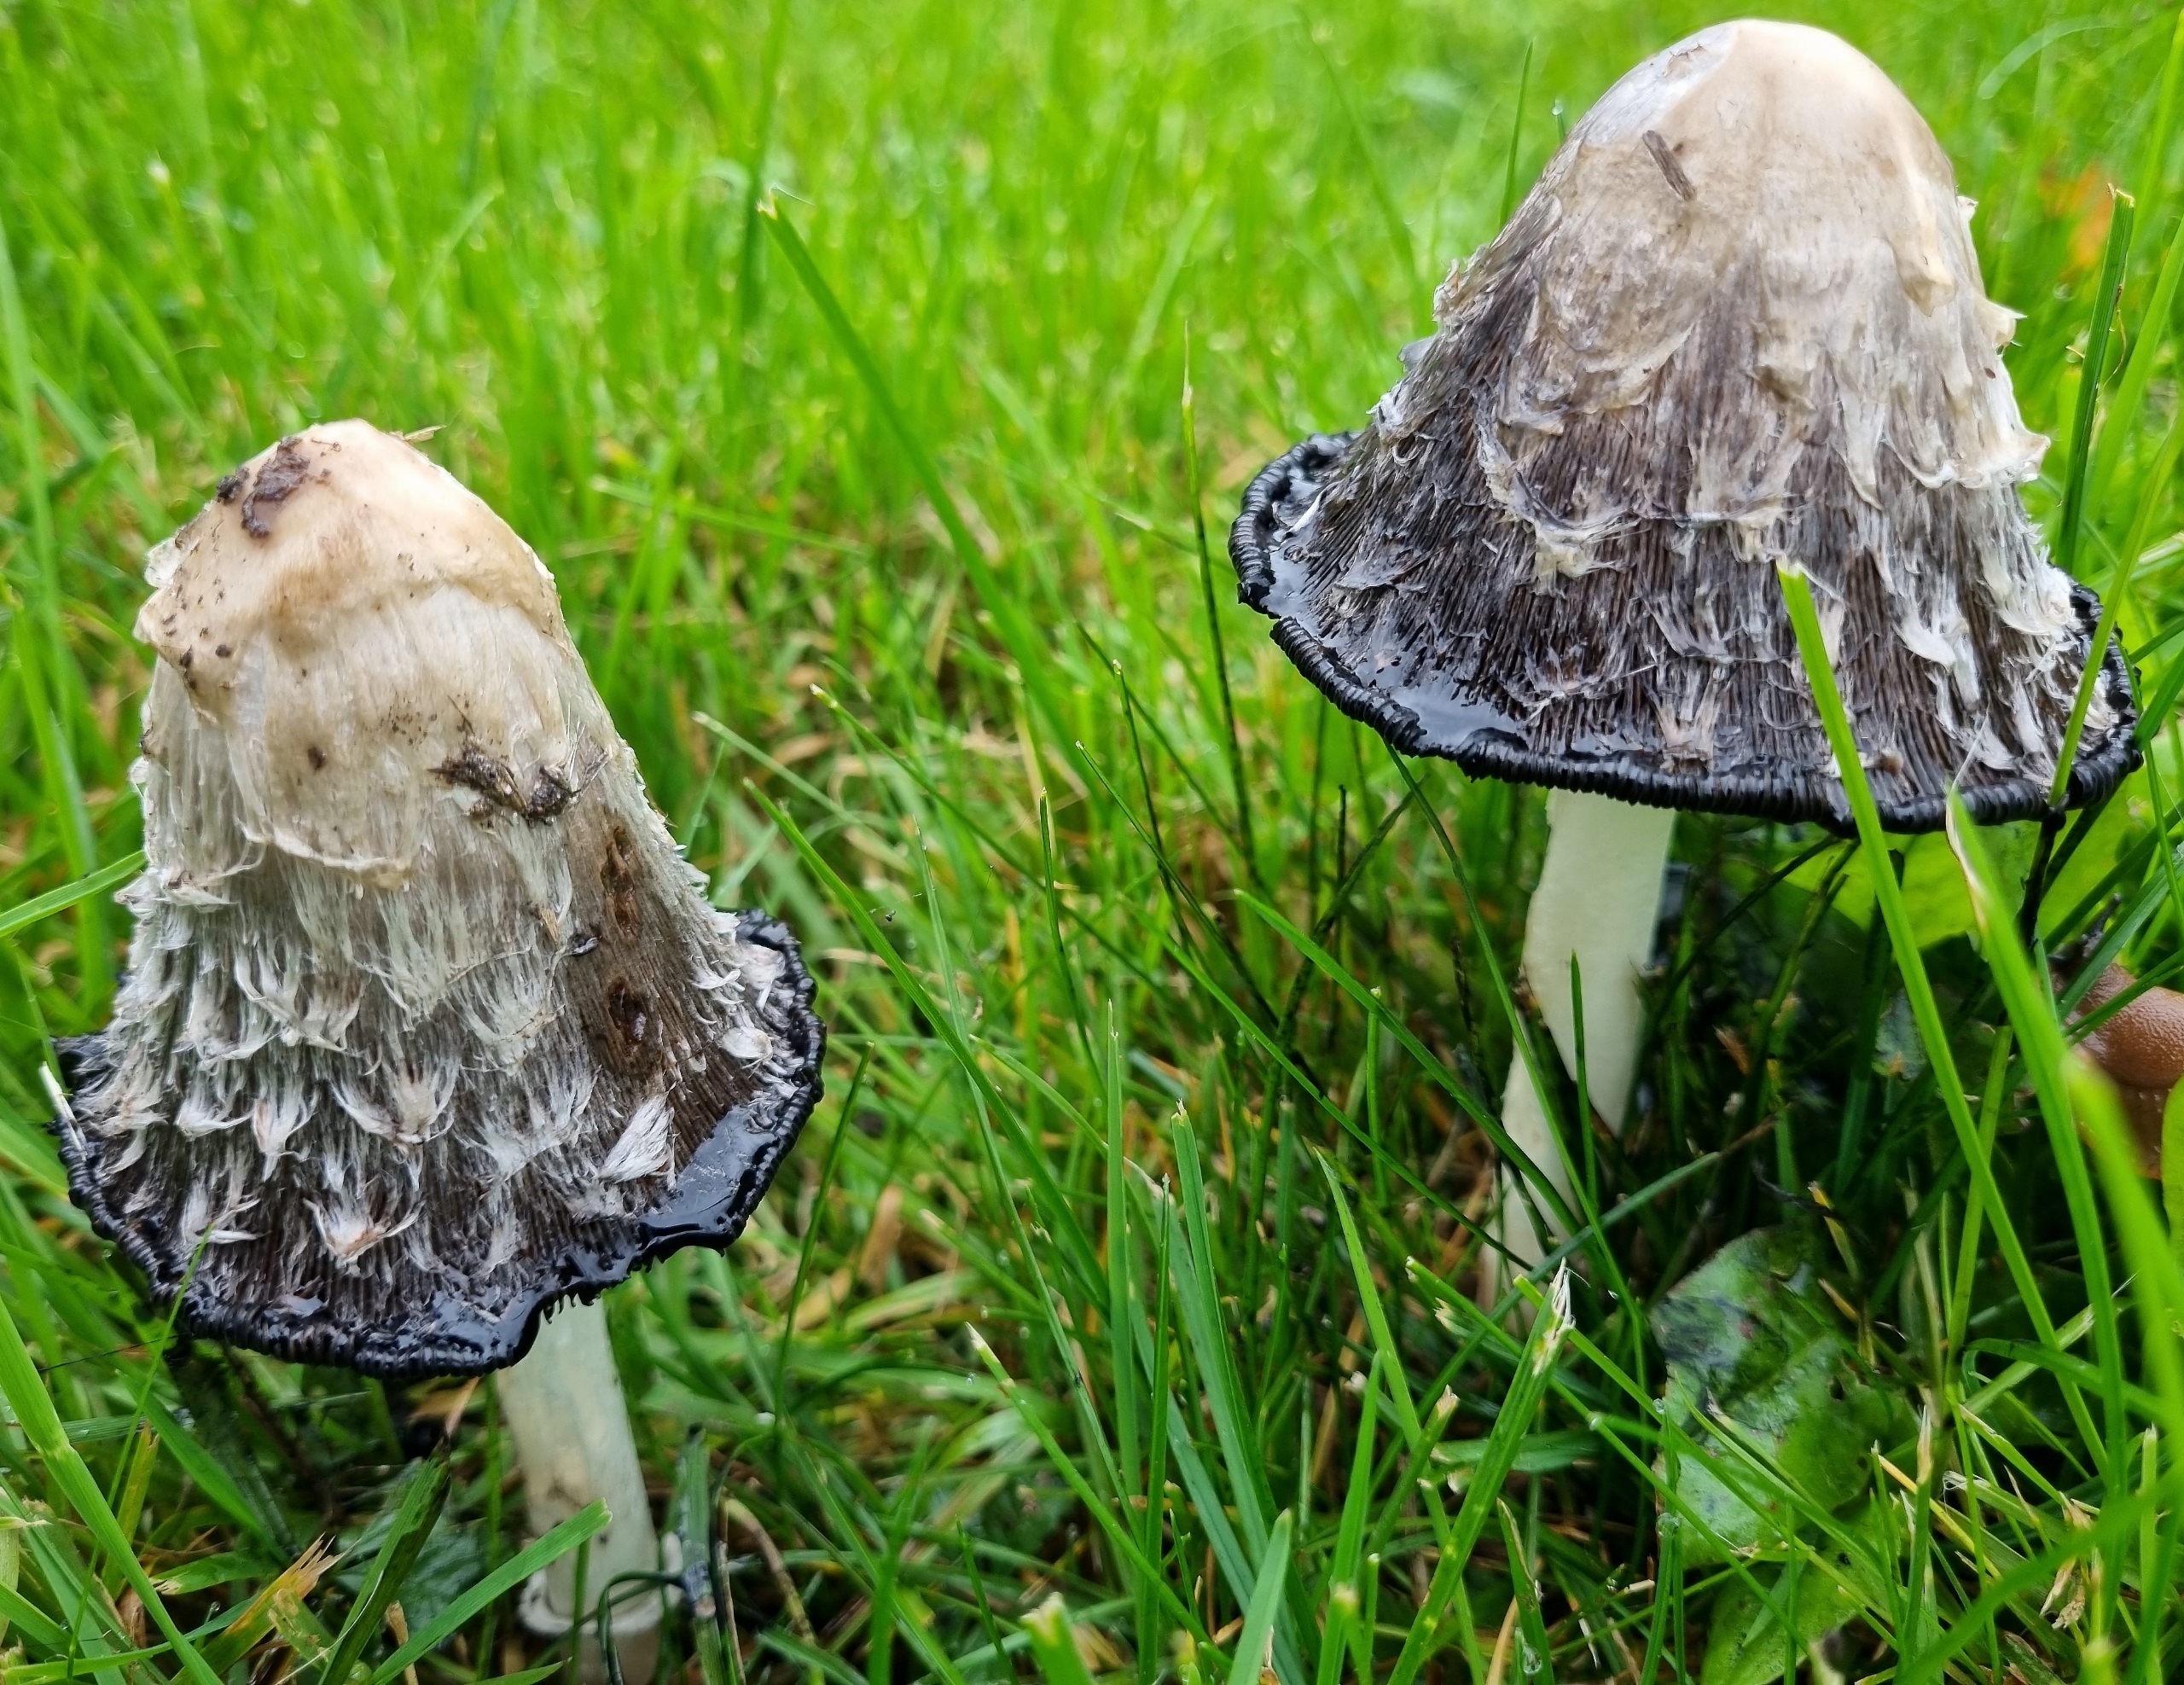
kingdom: Fungi
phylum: Basidiomycota
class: Agaricomycetes
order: Agaricales
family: Agaricaceae
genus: Coprinus
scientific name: Coprinus comatus
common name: Stor parykhat
